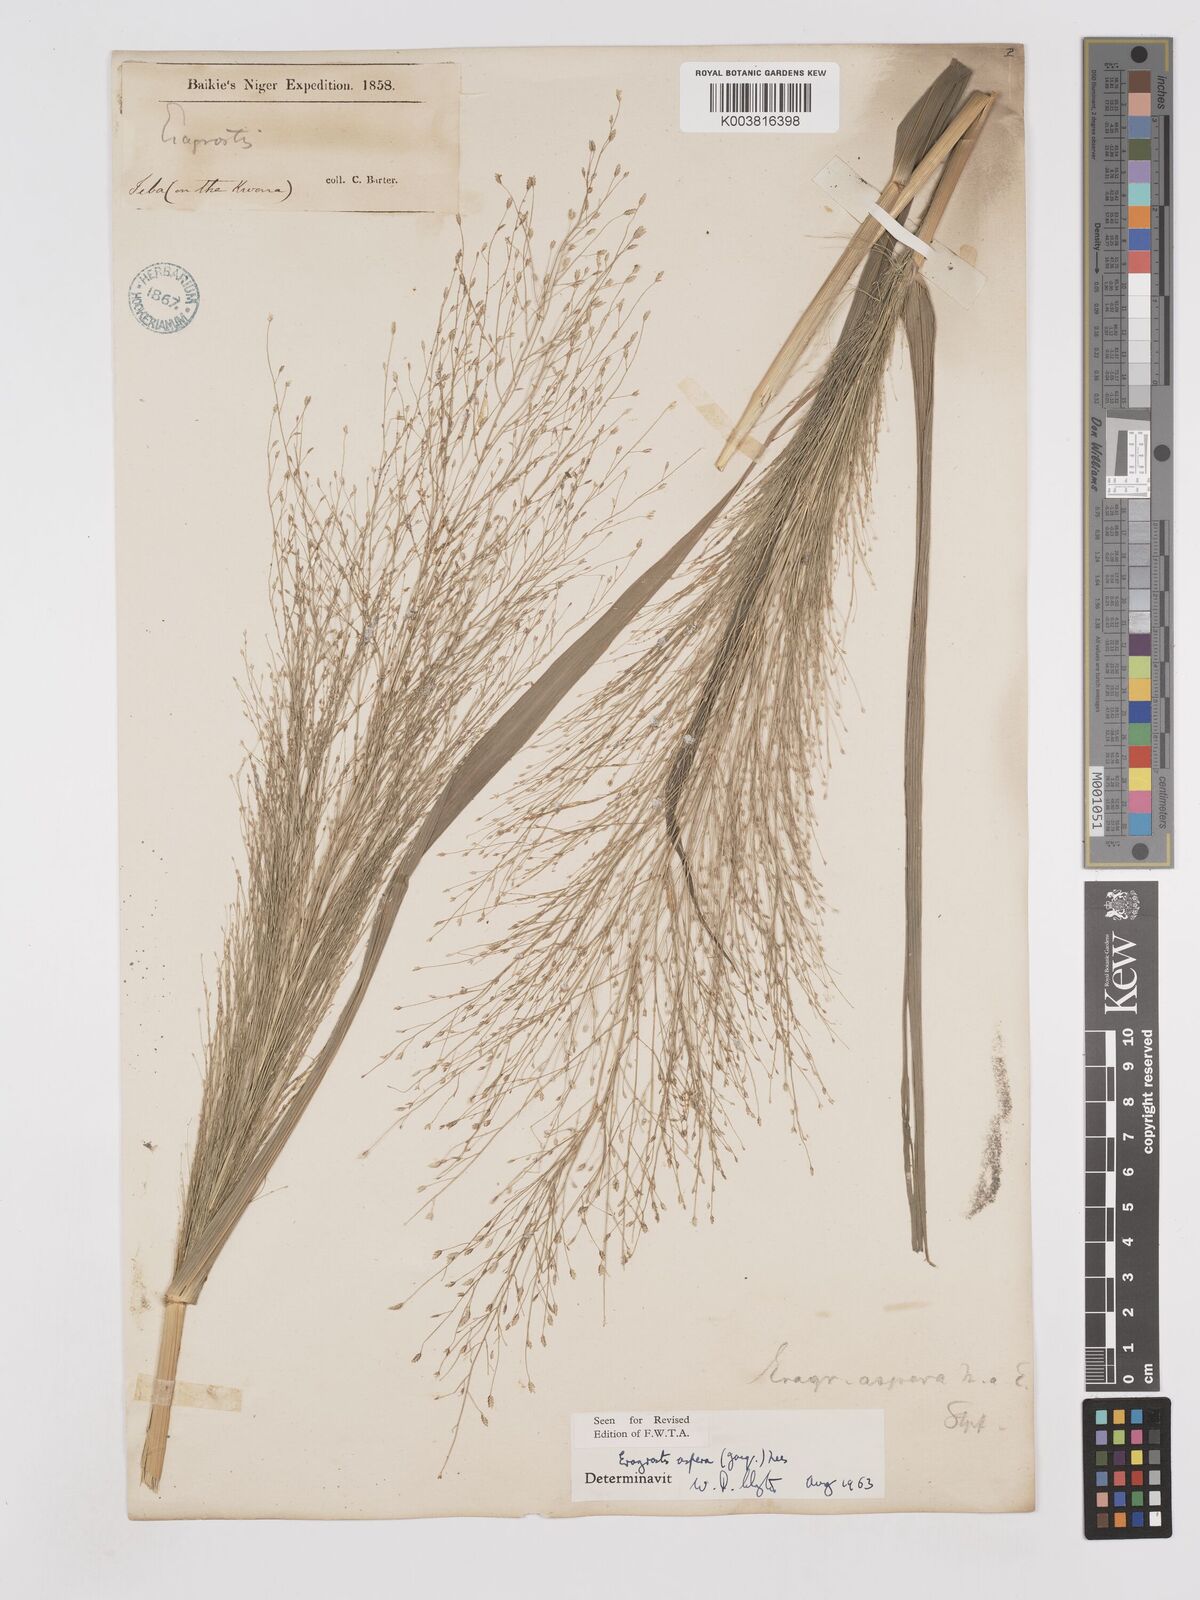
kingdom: Plantae
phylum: Tracheophyta
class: Liliopsida
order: Poales
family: Poaceae
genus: Eragrostis
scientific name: Eragrostis aspera
